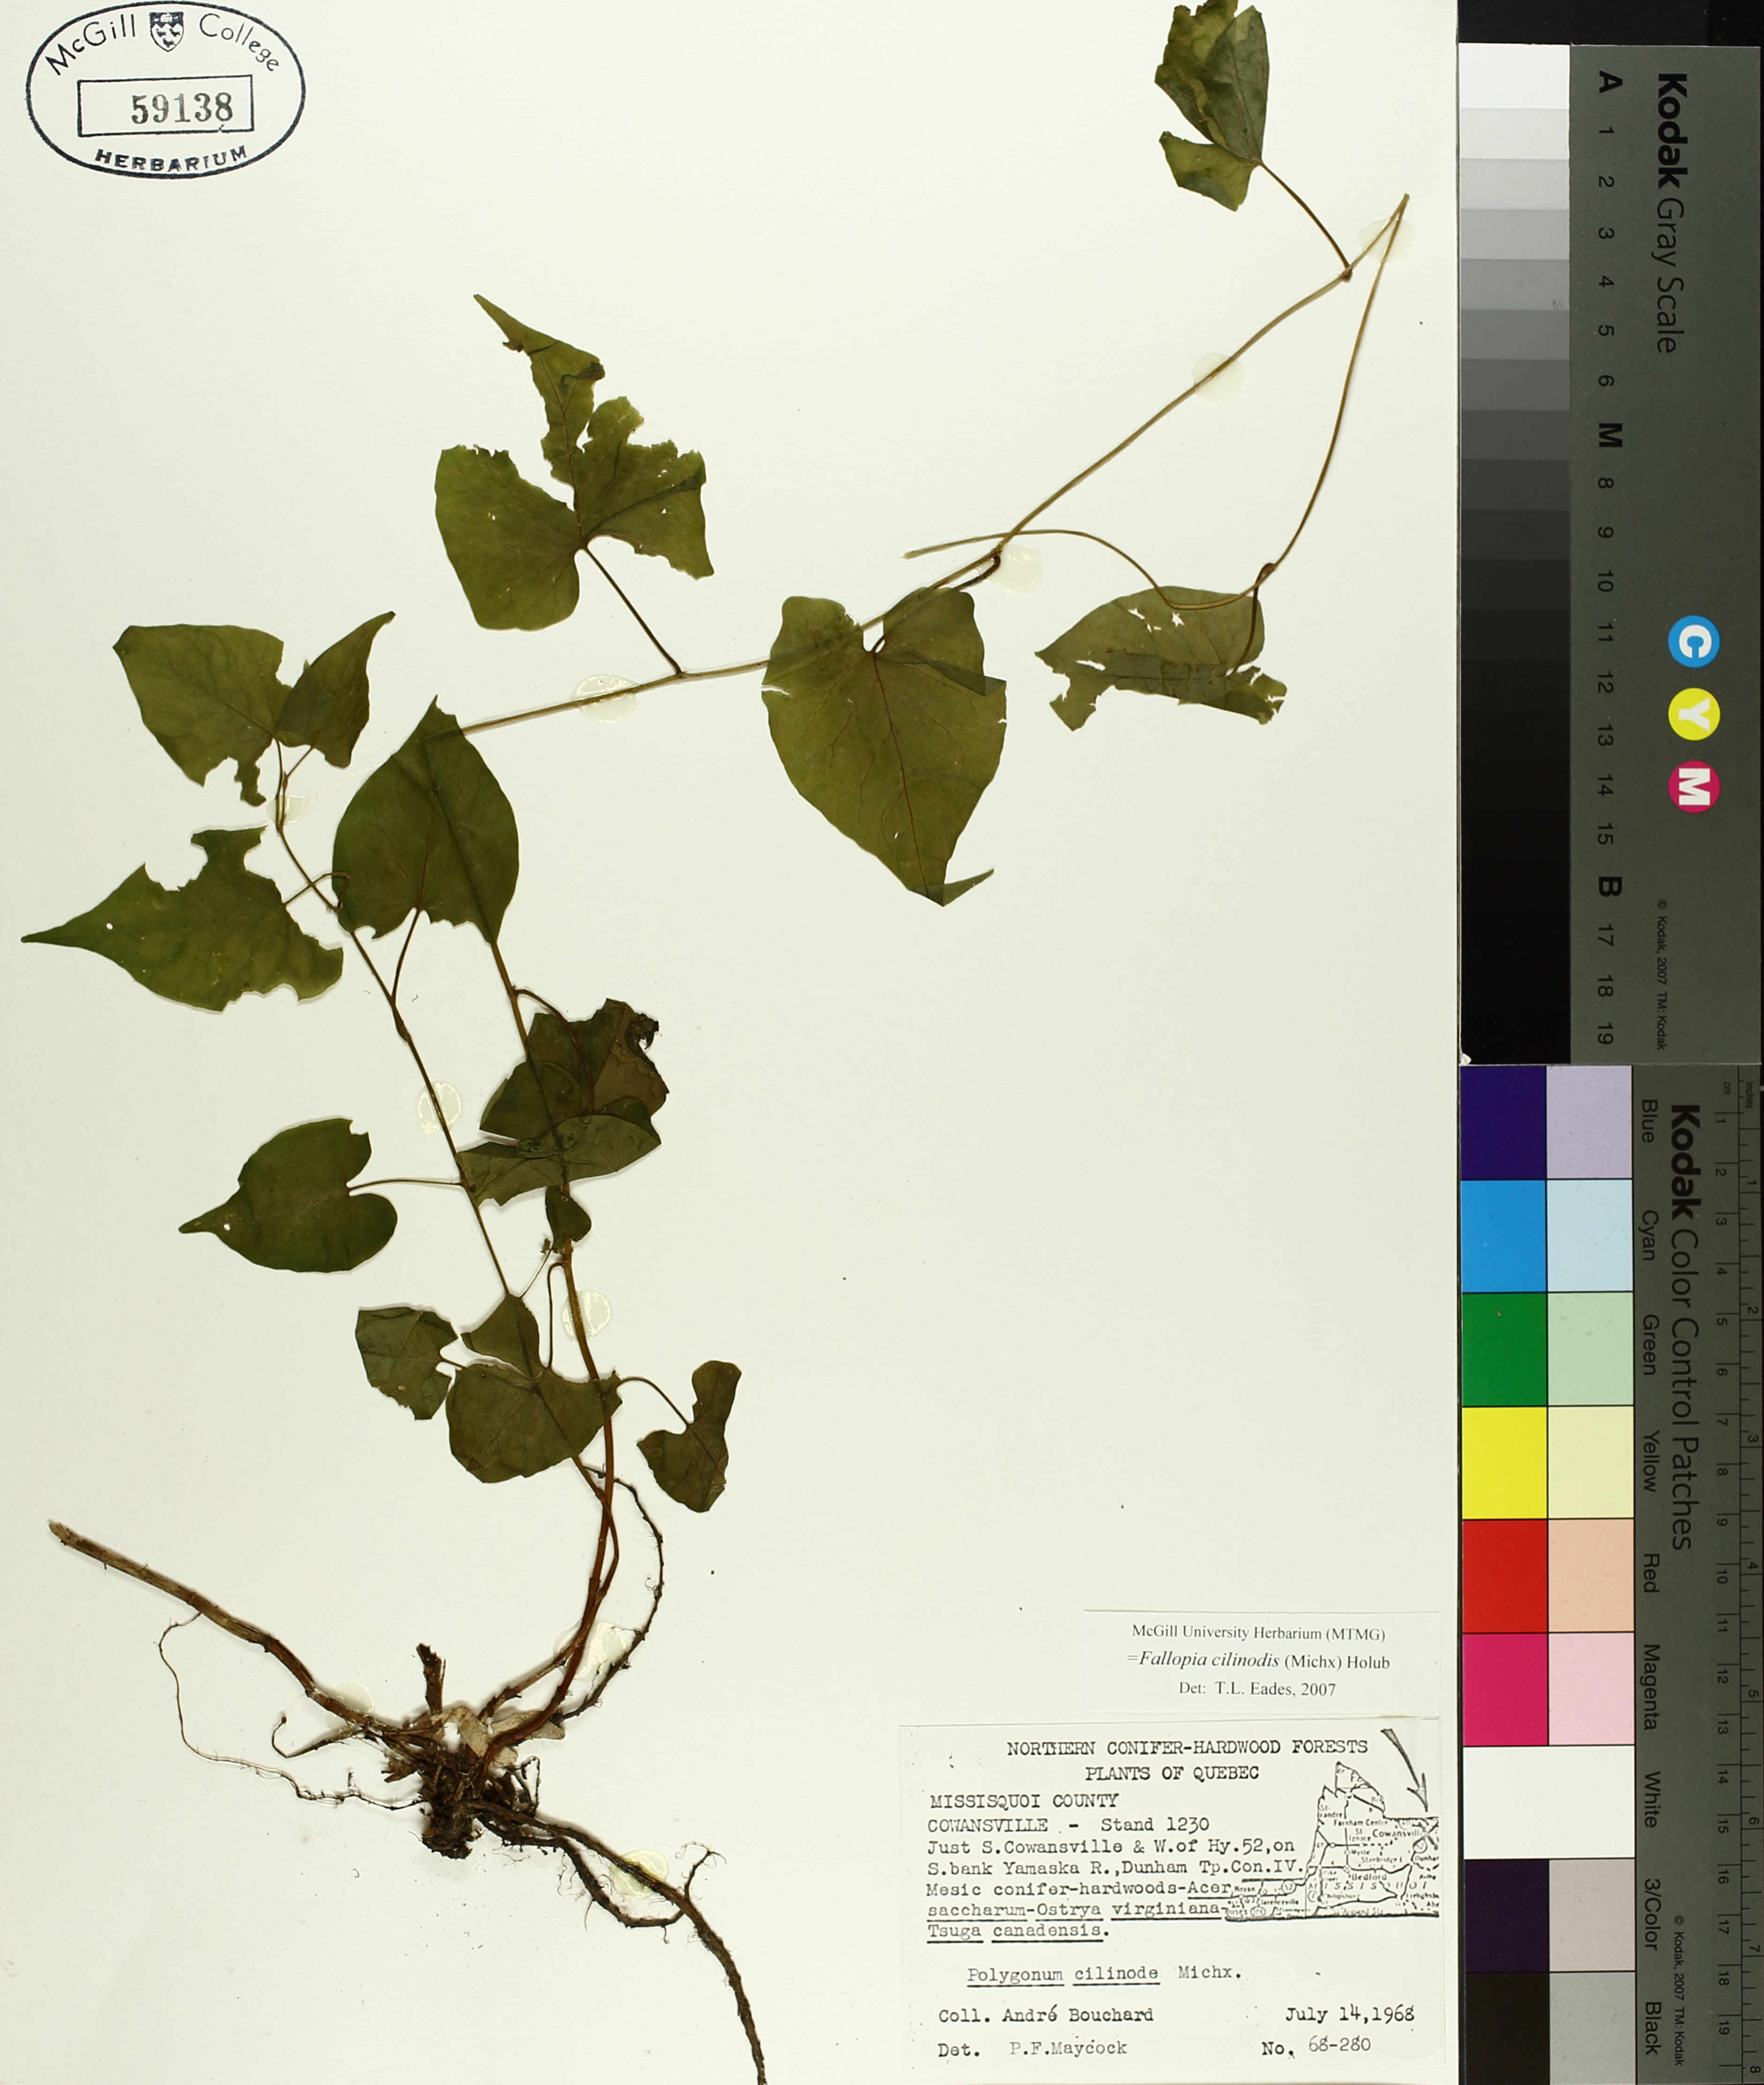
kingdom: Plantae
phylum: Tracheophyta
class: Magnoliopsida
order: Caryophyllales
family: Polygonaceae
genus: Parogonum
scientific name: Parogonum ciliinode
